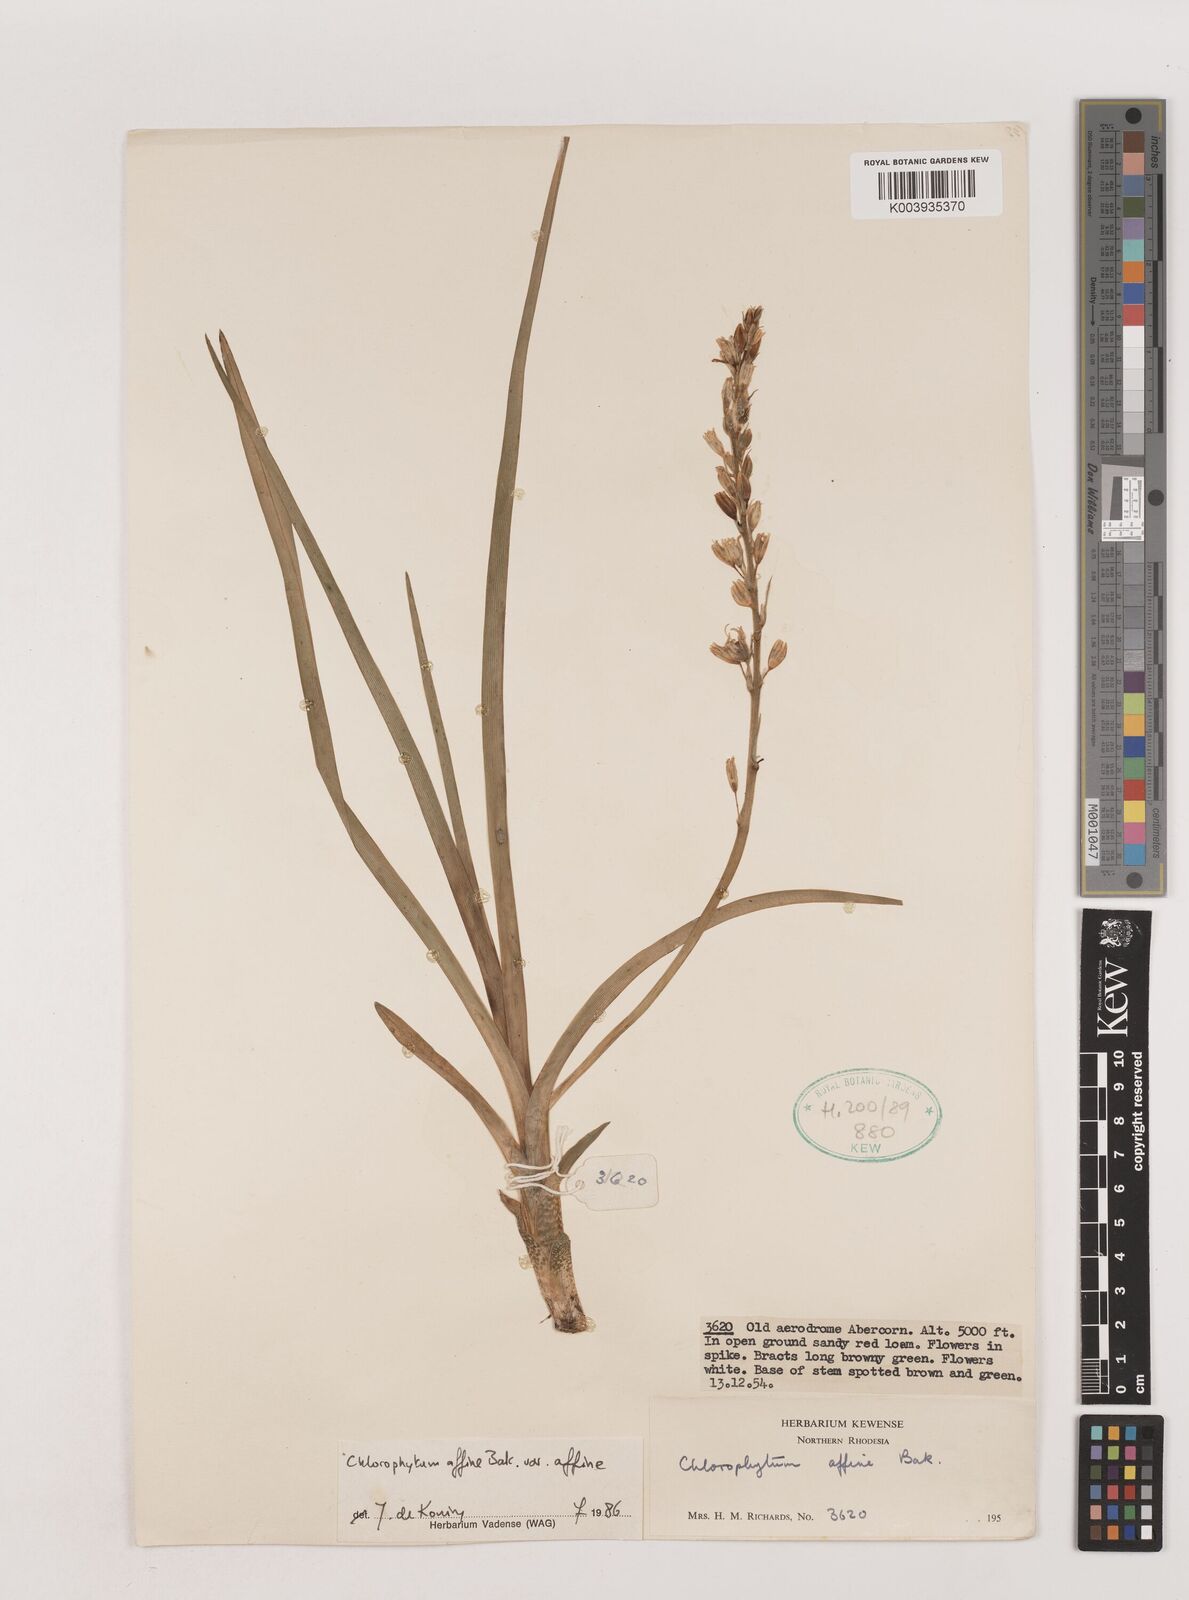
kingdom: Plantae
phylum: Tracheophyta
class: Liliopsida
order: Asparagales
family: Asparagaceae
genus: Chlorophytum
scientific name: Chlorophytum affine
